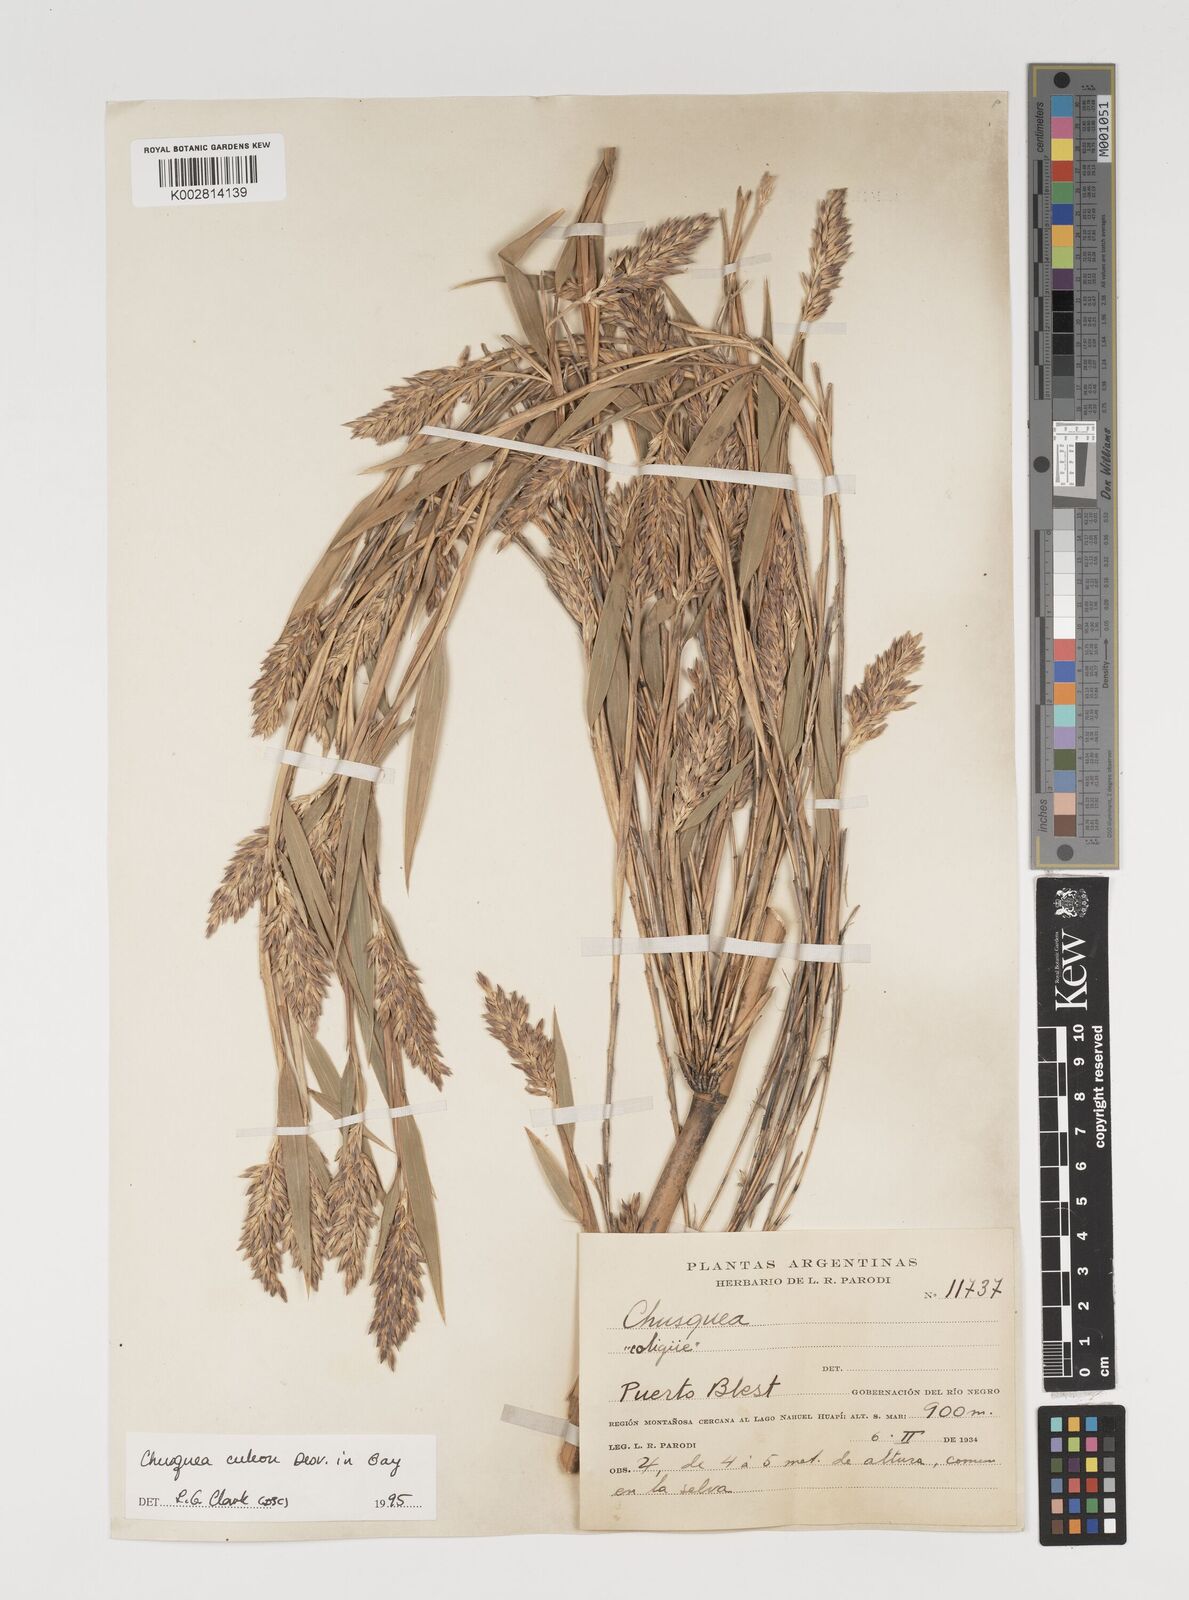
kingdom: Plantae
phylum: Tracheophyta
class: Liliopsida
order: Poales
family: Poaceae
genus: Chusquea
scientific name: Chusquea culeou
